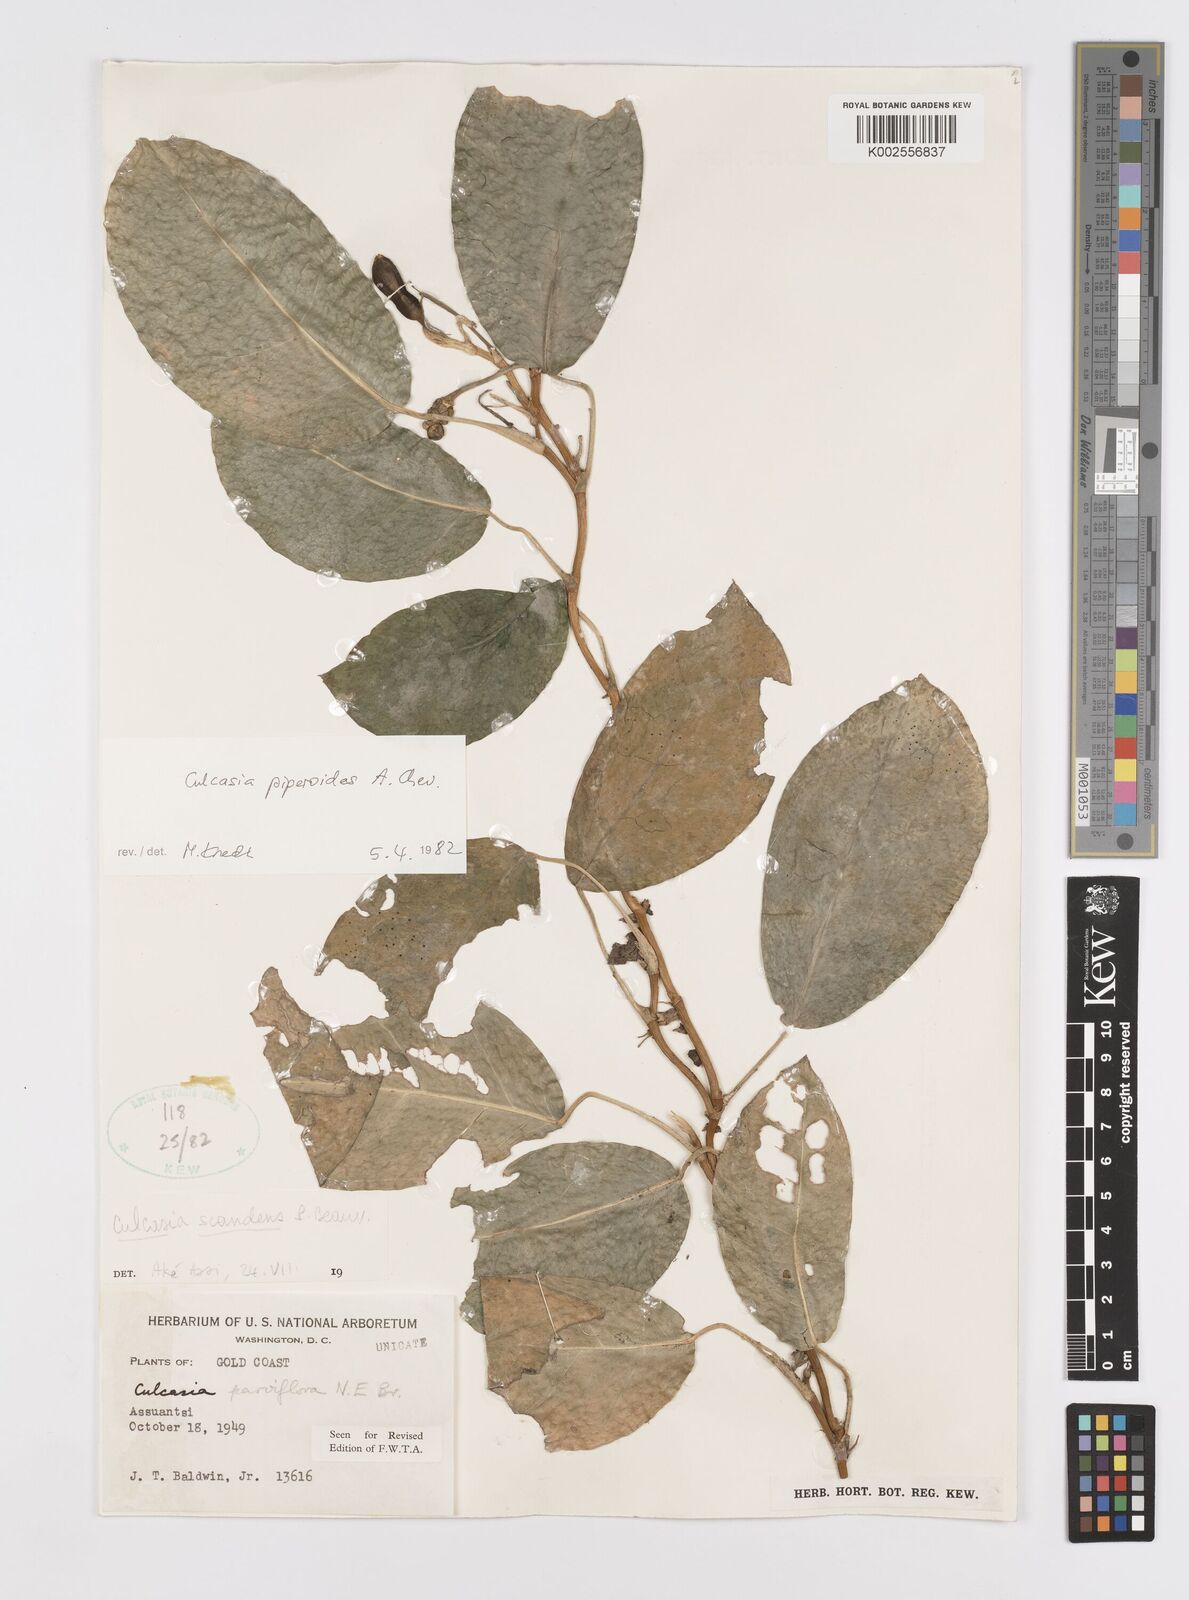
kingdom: Plantae
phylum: Tracheophyta
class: Liliopsida
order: Alismatales
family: Araceae
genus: Culcasia
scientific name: Culcasia parviflora
